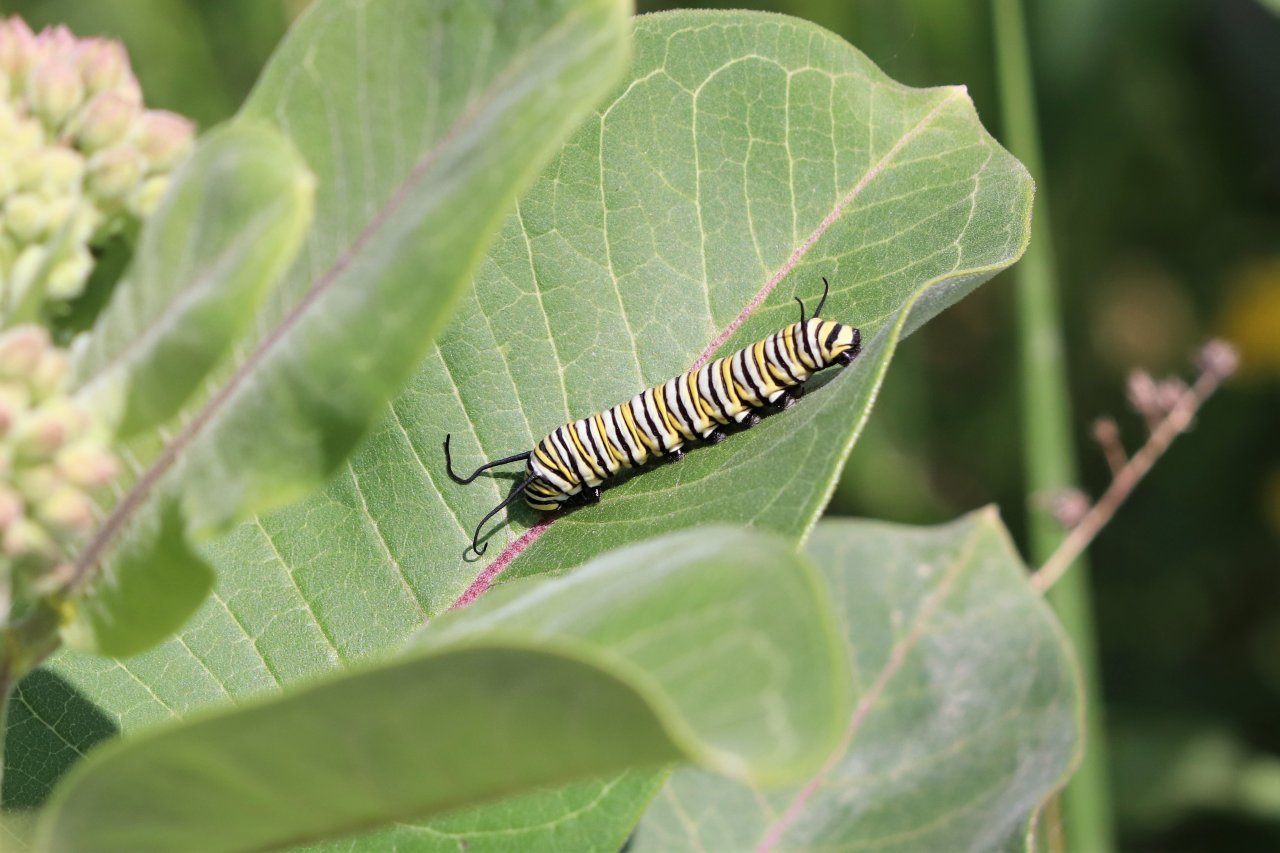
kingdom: Animalia
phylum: Arthropoda
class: Insecta
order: Lepidoptera
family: Nymphalidae
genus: Danaus
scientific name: Danaus plexippus
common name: Monarch
